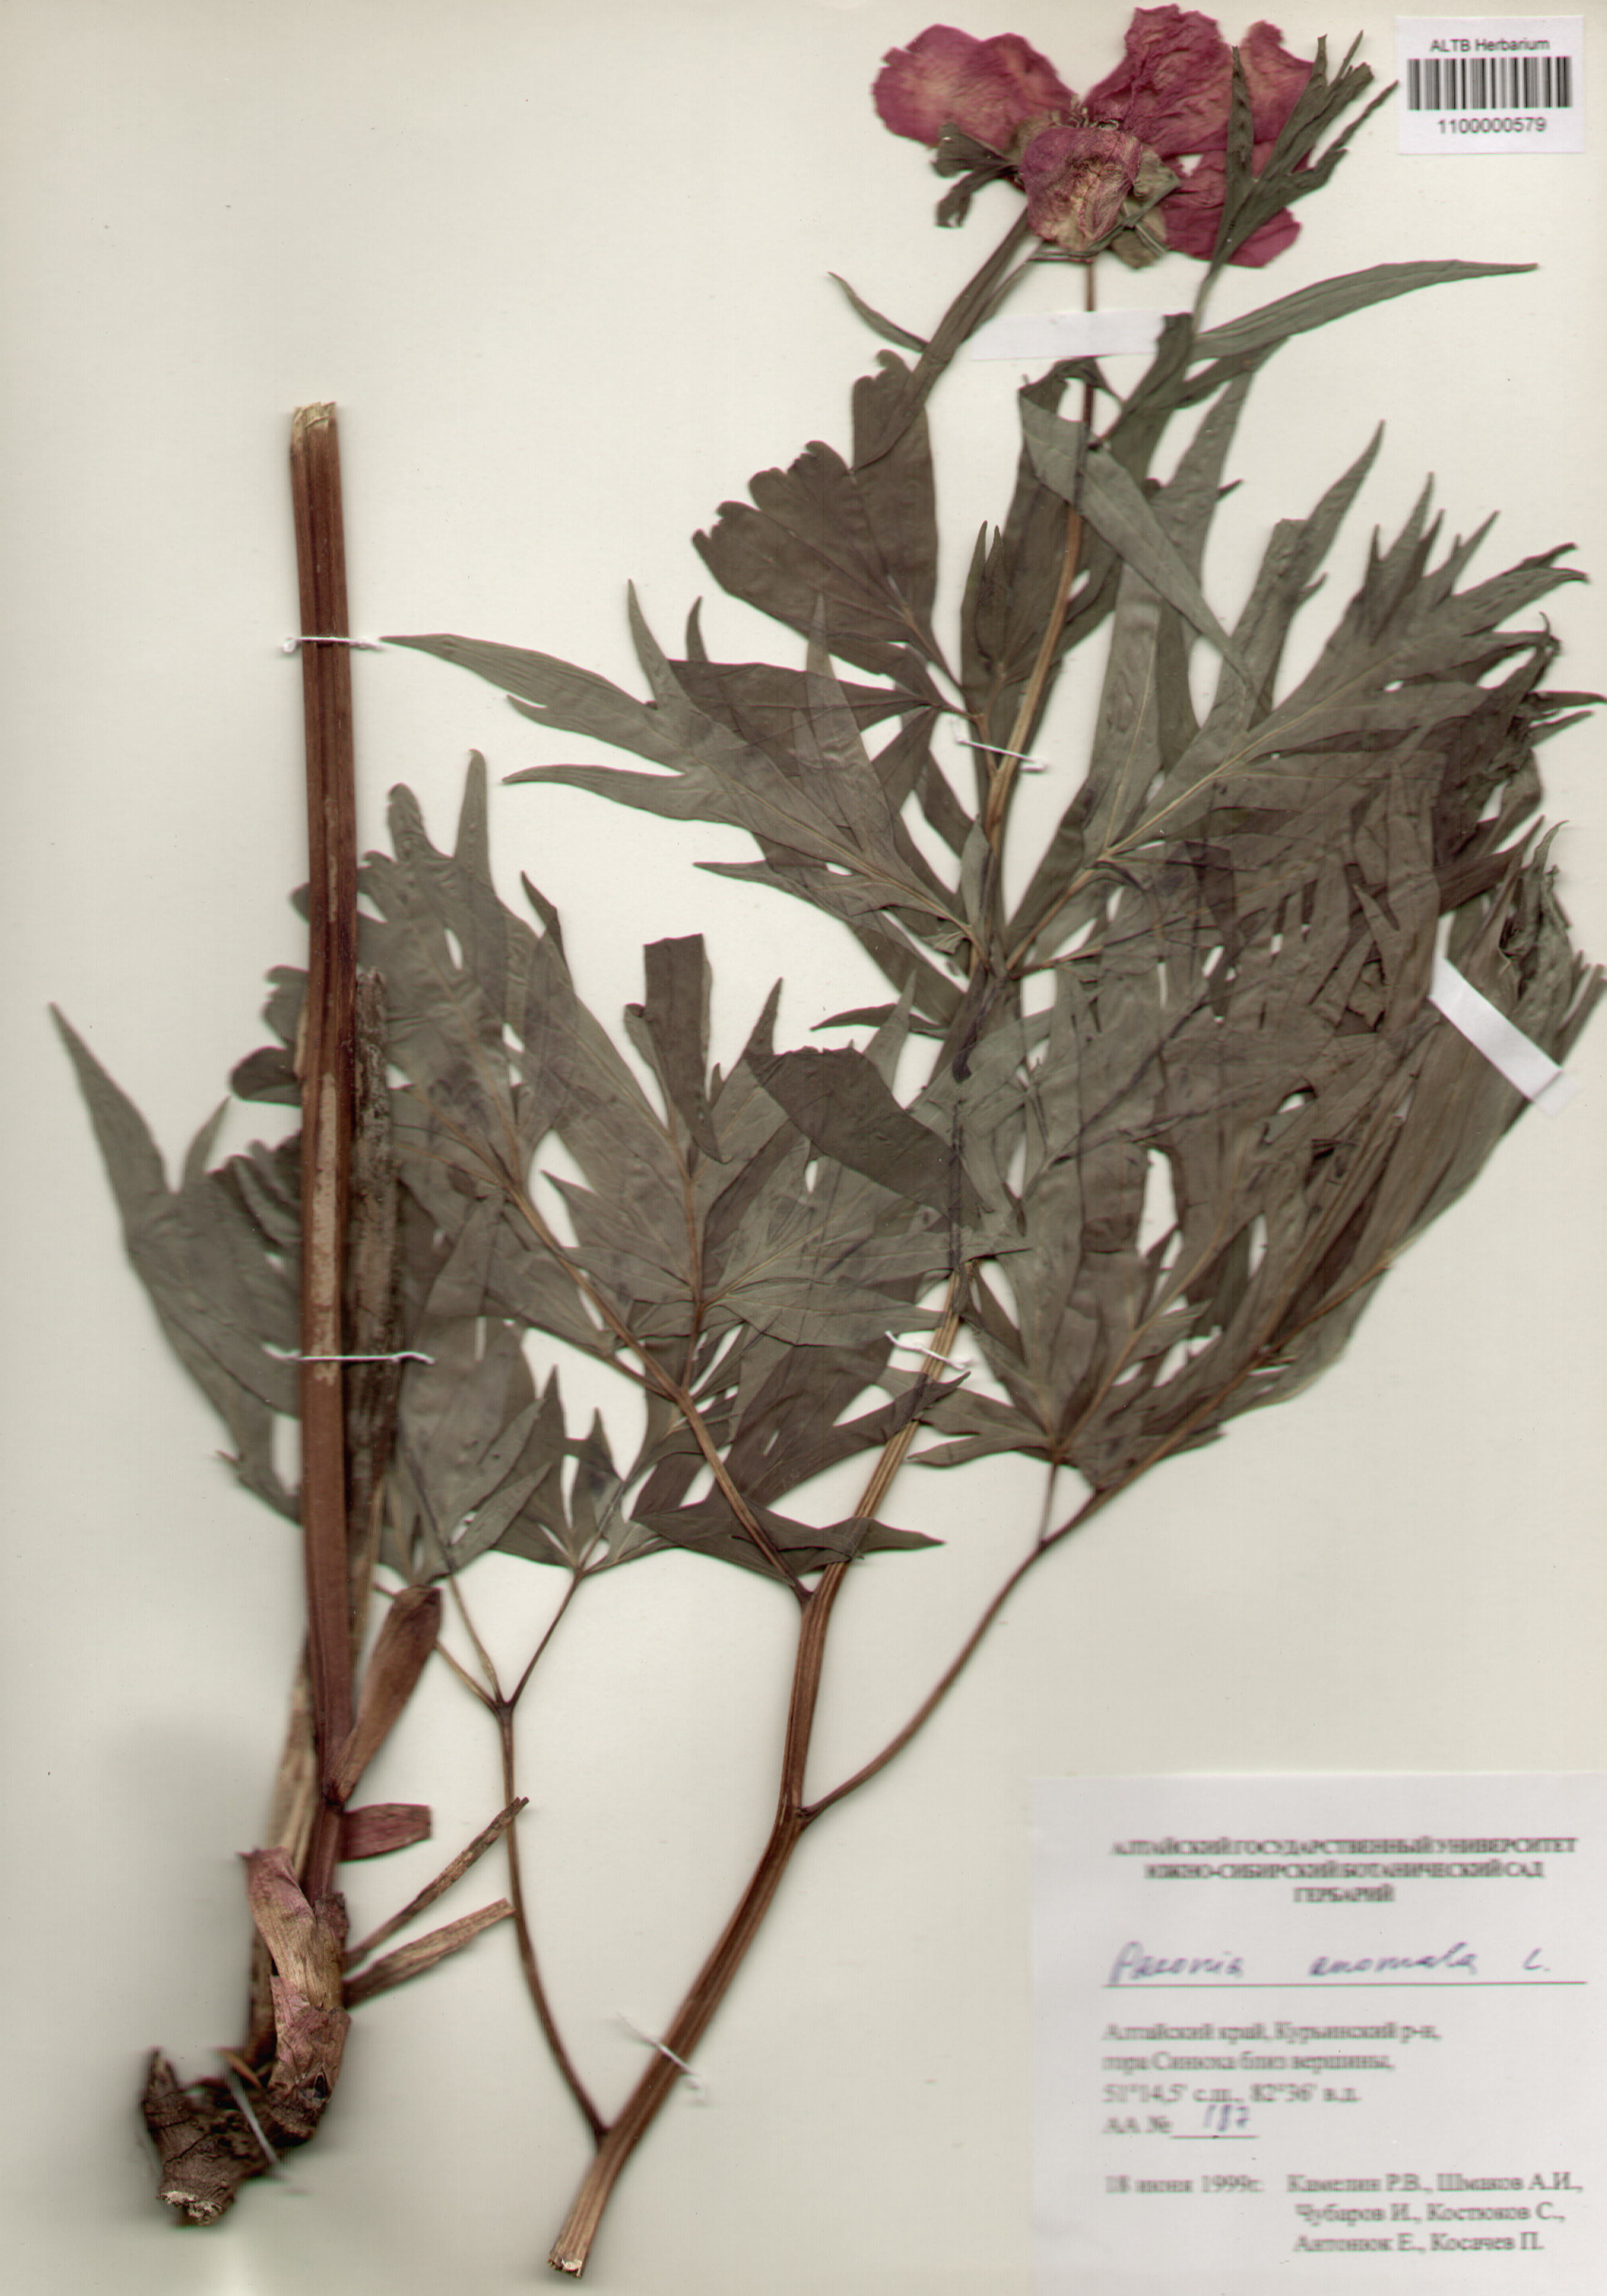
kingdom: Plantae
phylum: Tracheophyta
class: Magnoliopsida
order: Saxifragales
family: Paeoniaceae
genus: Paeonia
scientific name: Paeonia anomala
